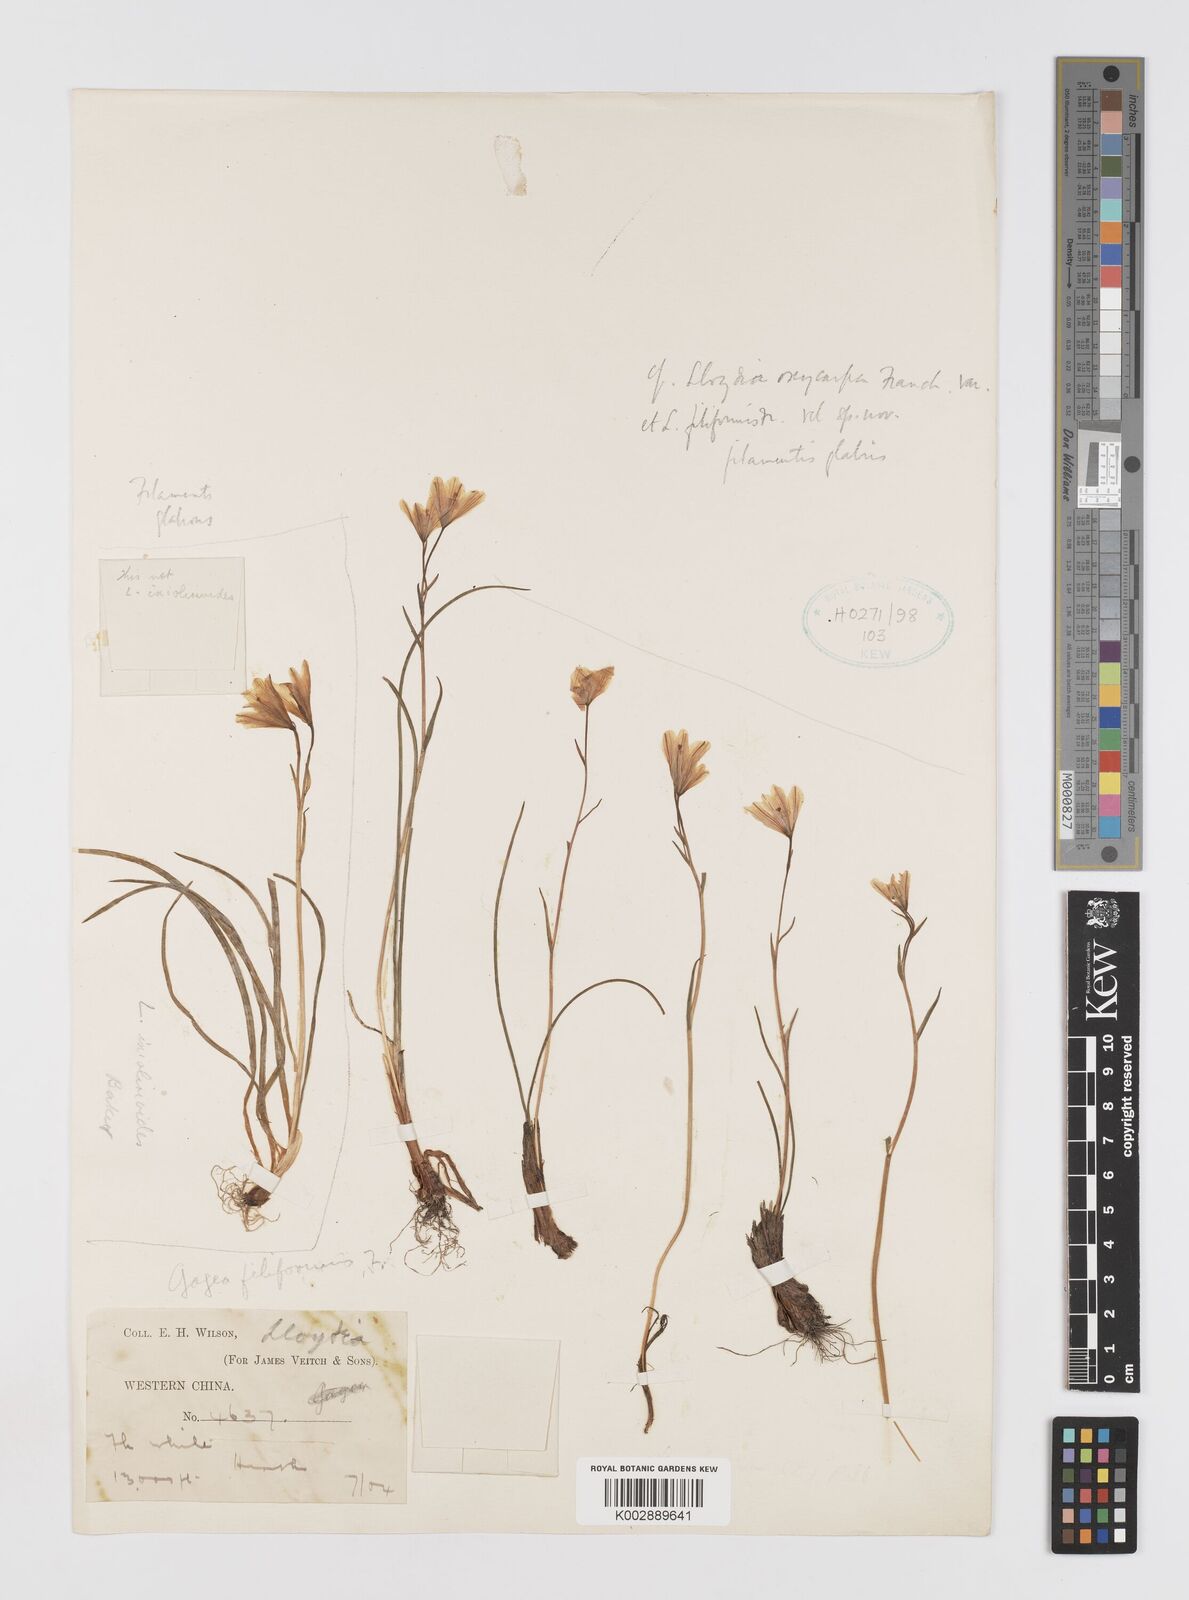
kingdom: Plantae
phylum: Tracheophyta
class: Liliopsida
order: Liliales
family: Liliaceae
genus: Gagea
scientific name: Gagea
